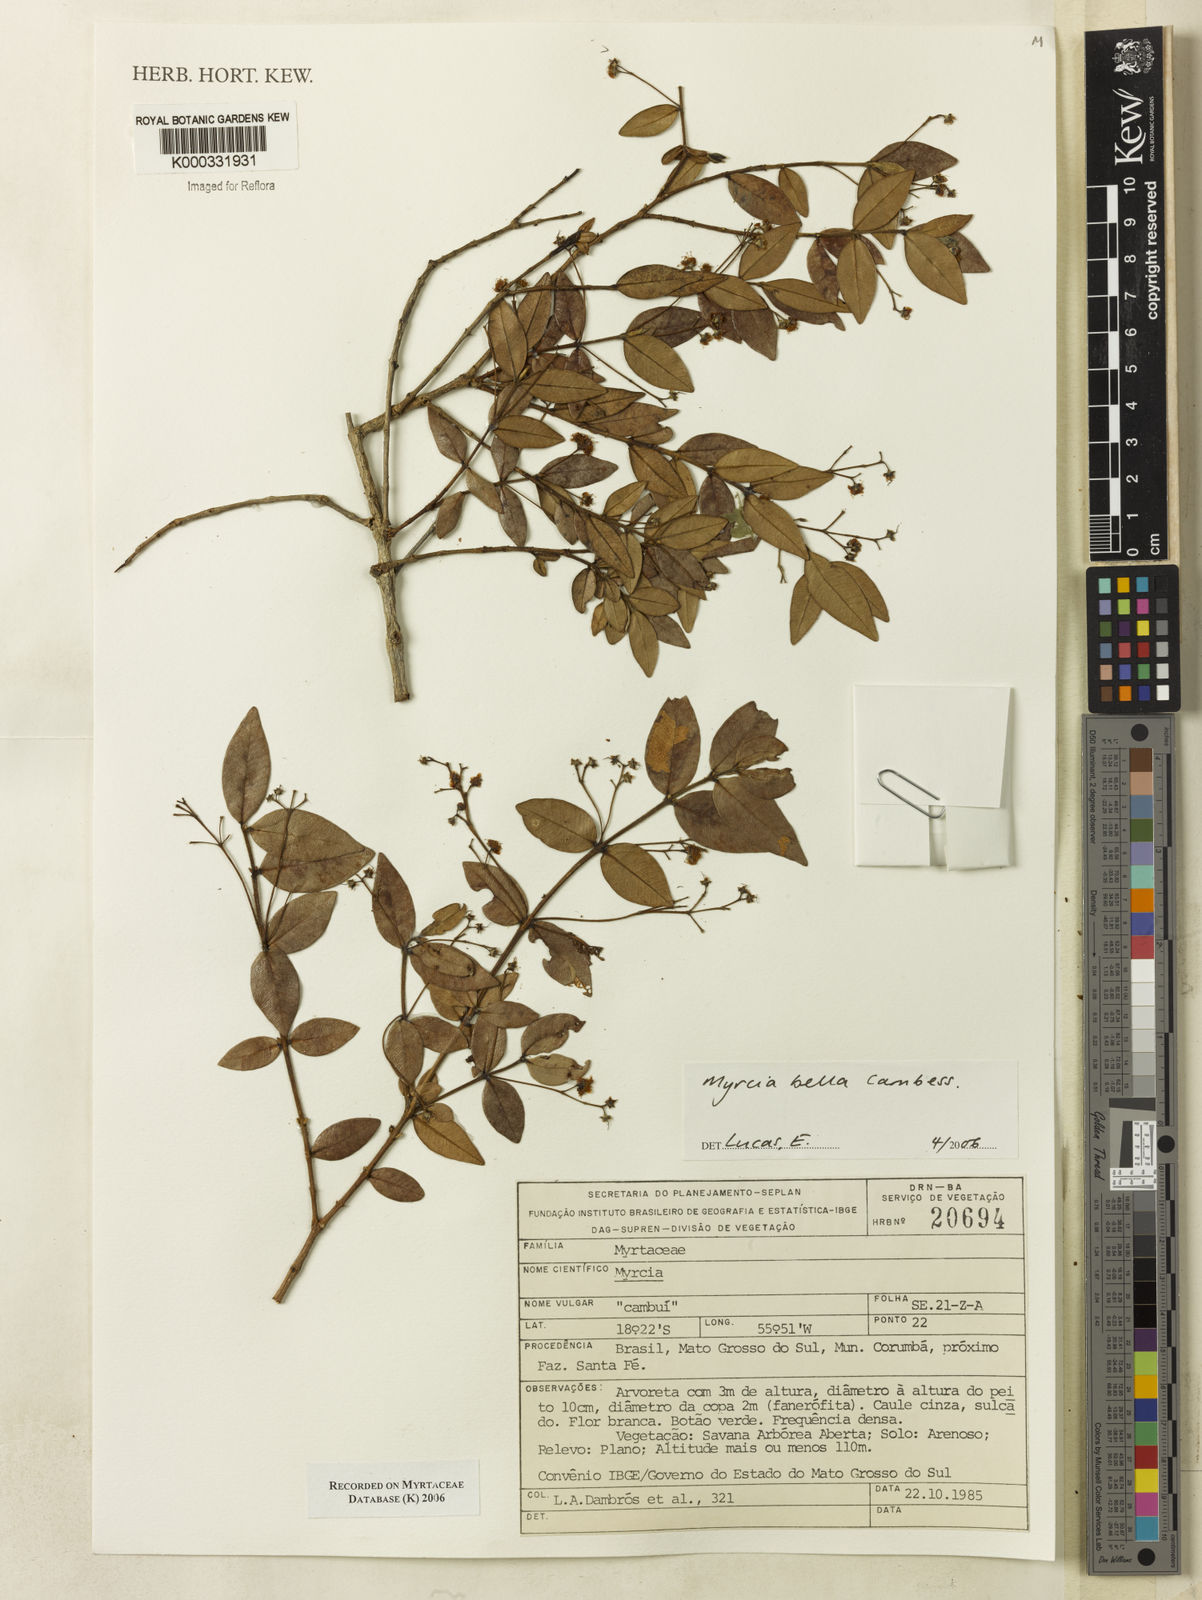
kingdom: Plantae
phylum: Tracheophyta
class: Magnoliopsida
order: Myrtales
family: Myrtaceae
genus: Myrcia
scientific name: Myrcia bella
